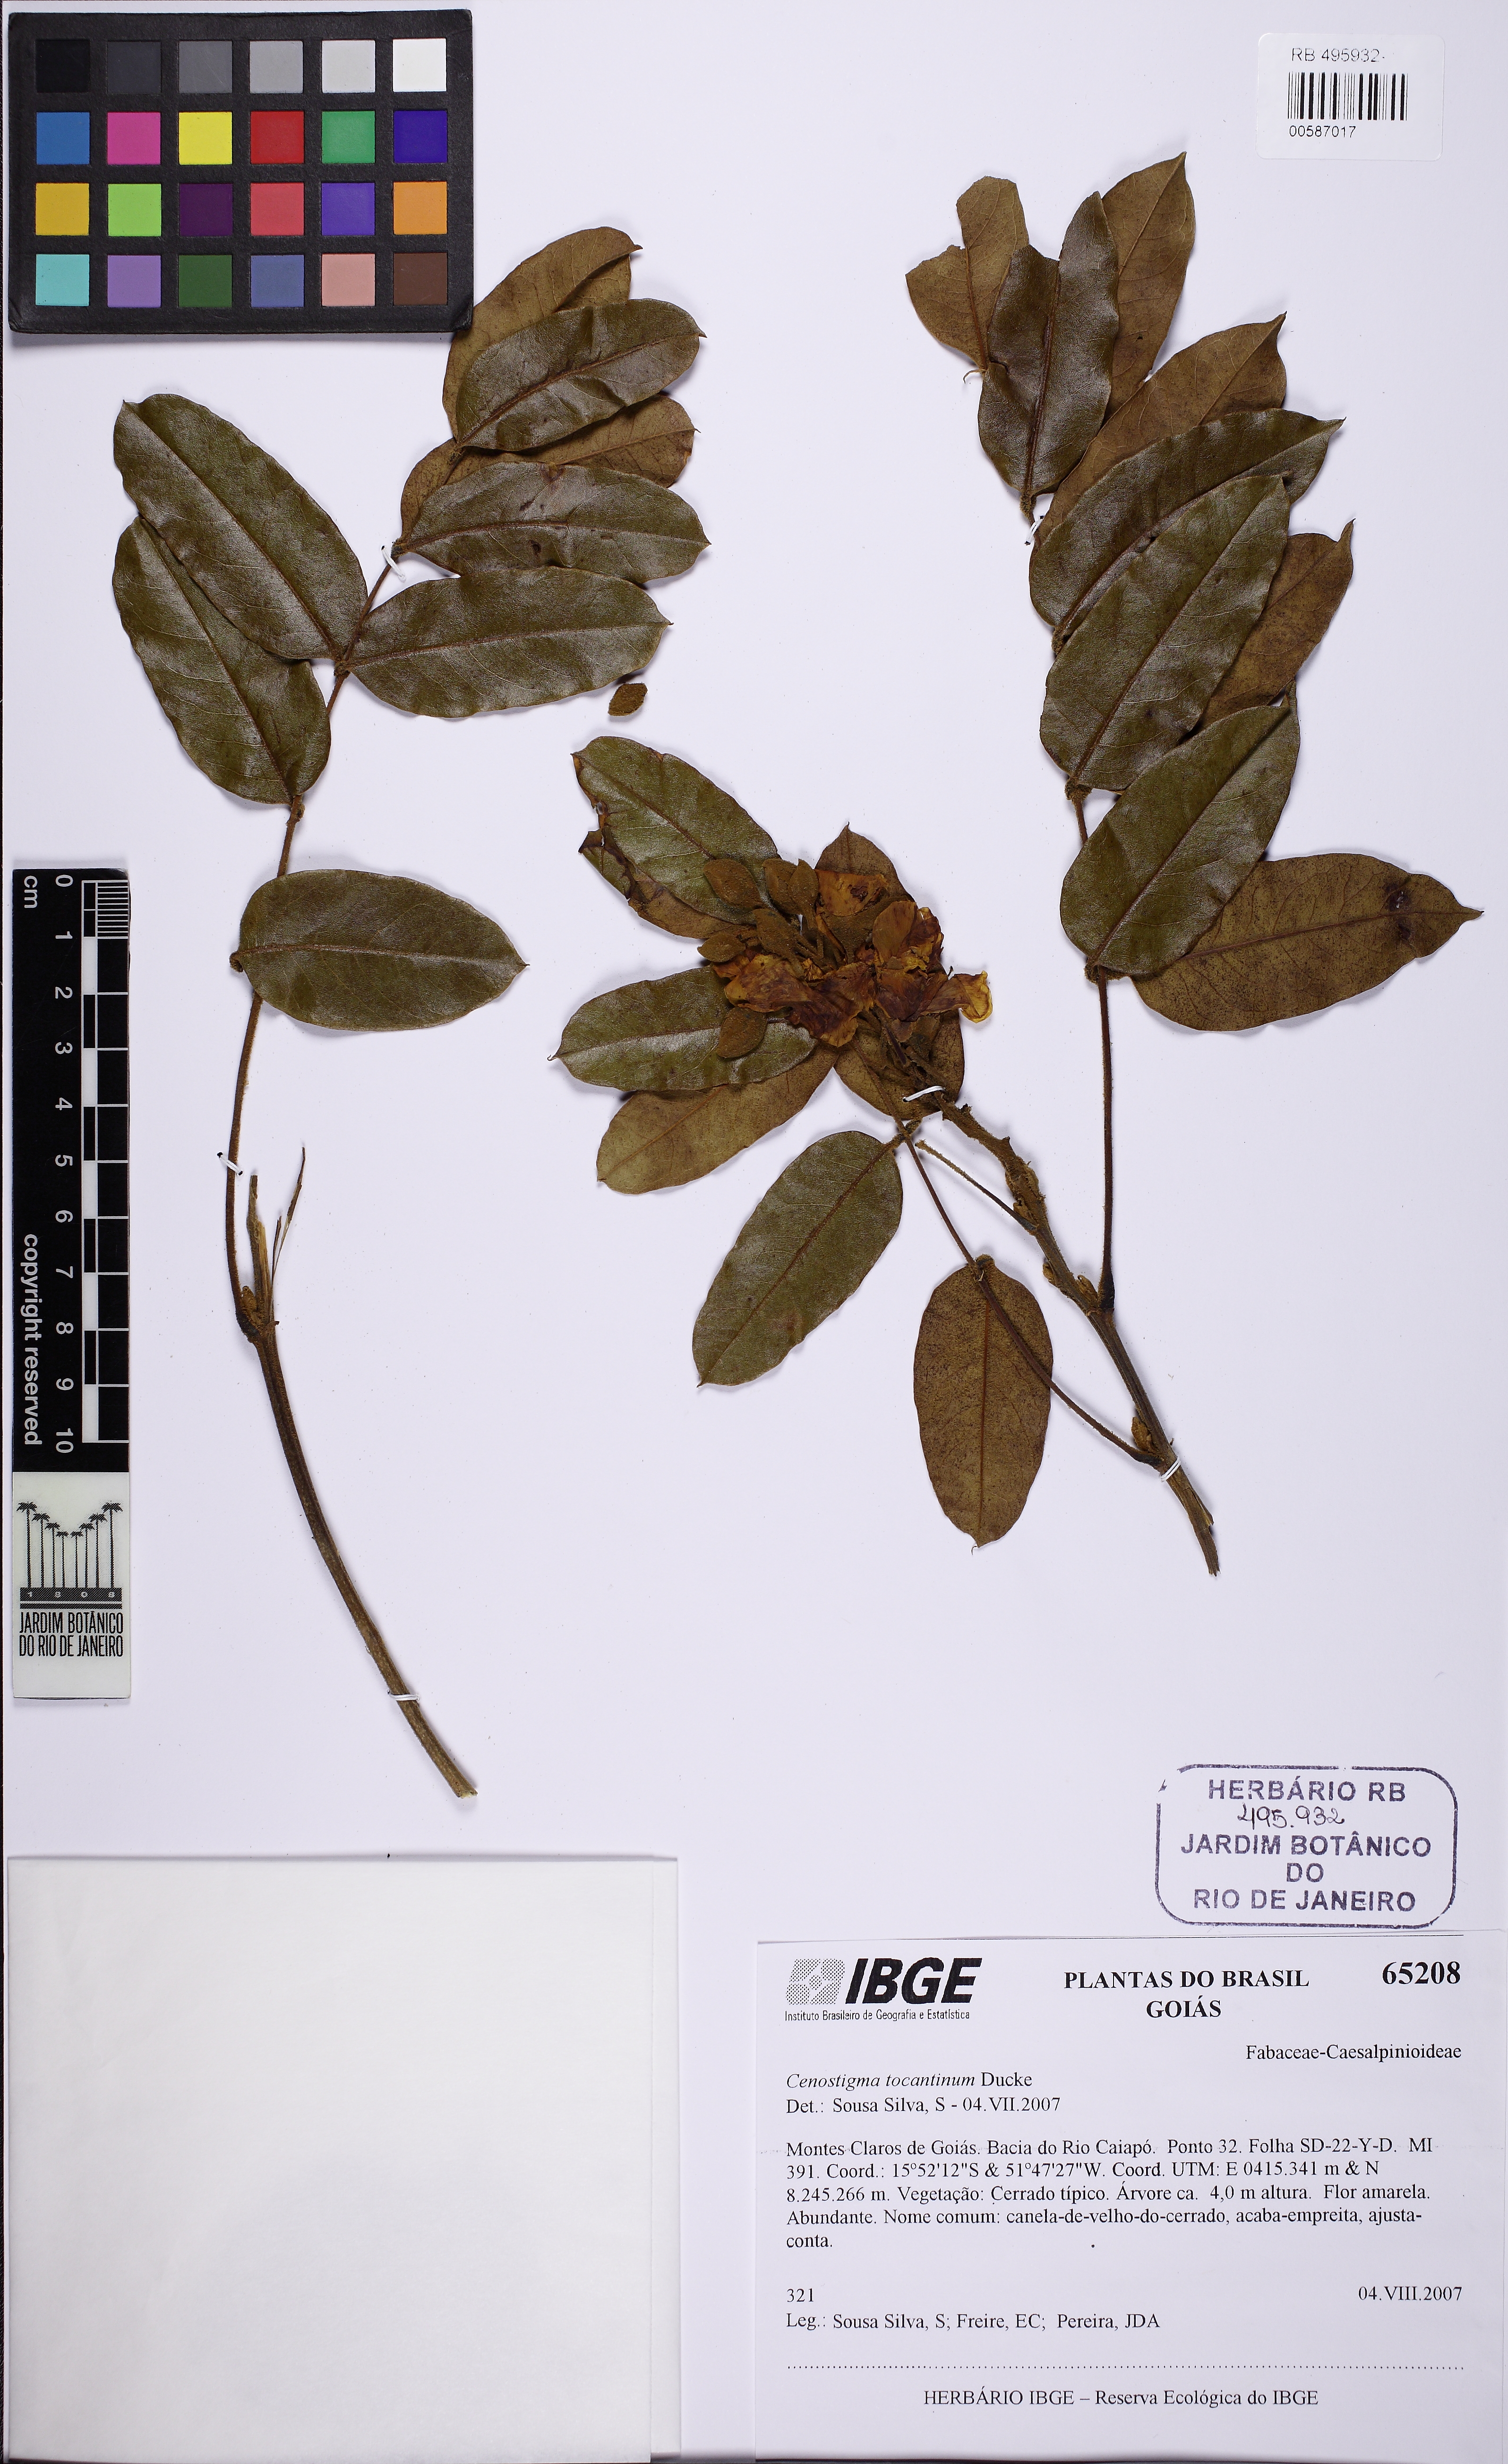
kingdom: Plantae
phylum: Tracheophyta
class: Magnoliopsida
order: Fabales
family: Fabaceae
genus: Cenostigma
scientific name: Cenostigma tocantinum
